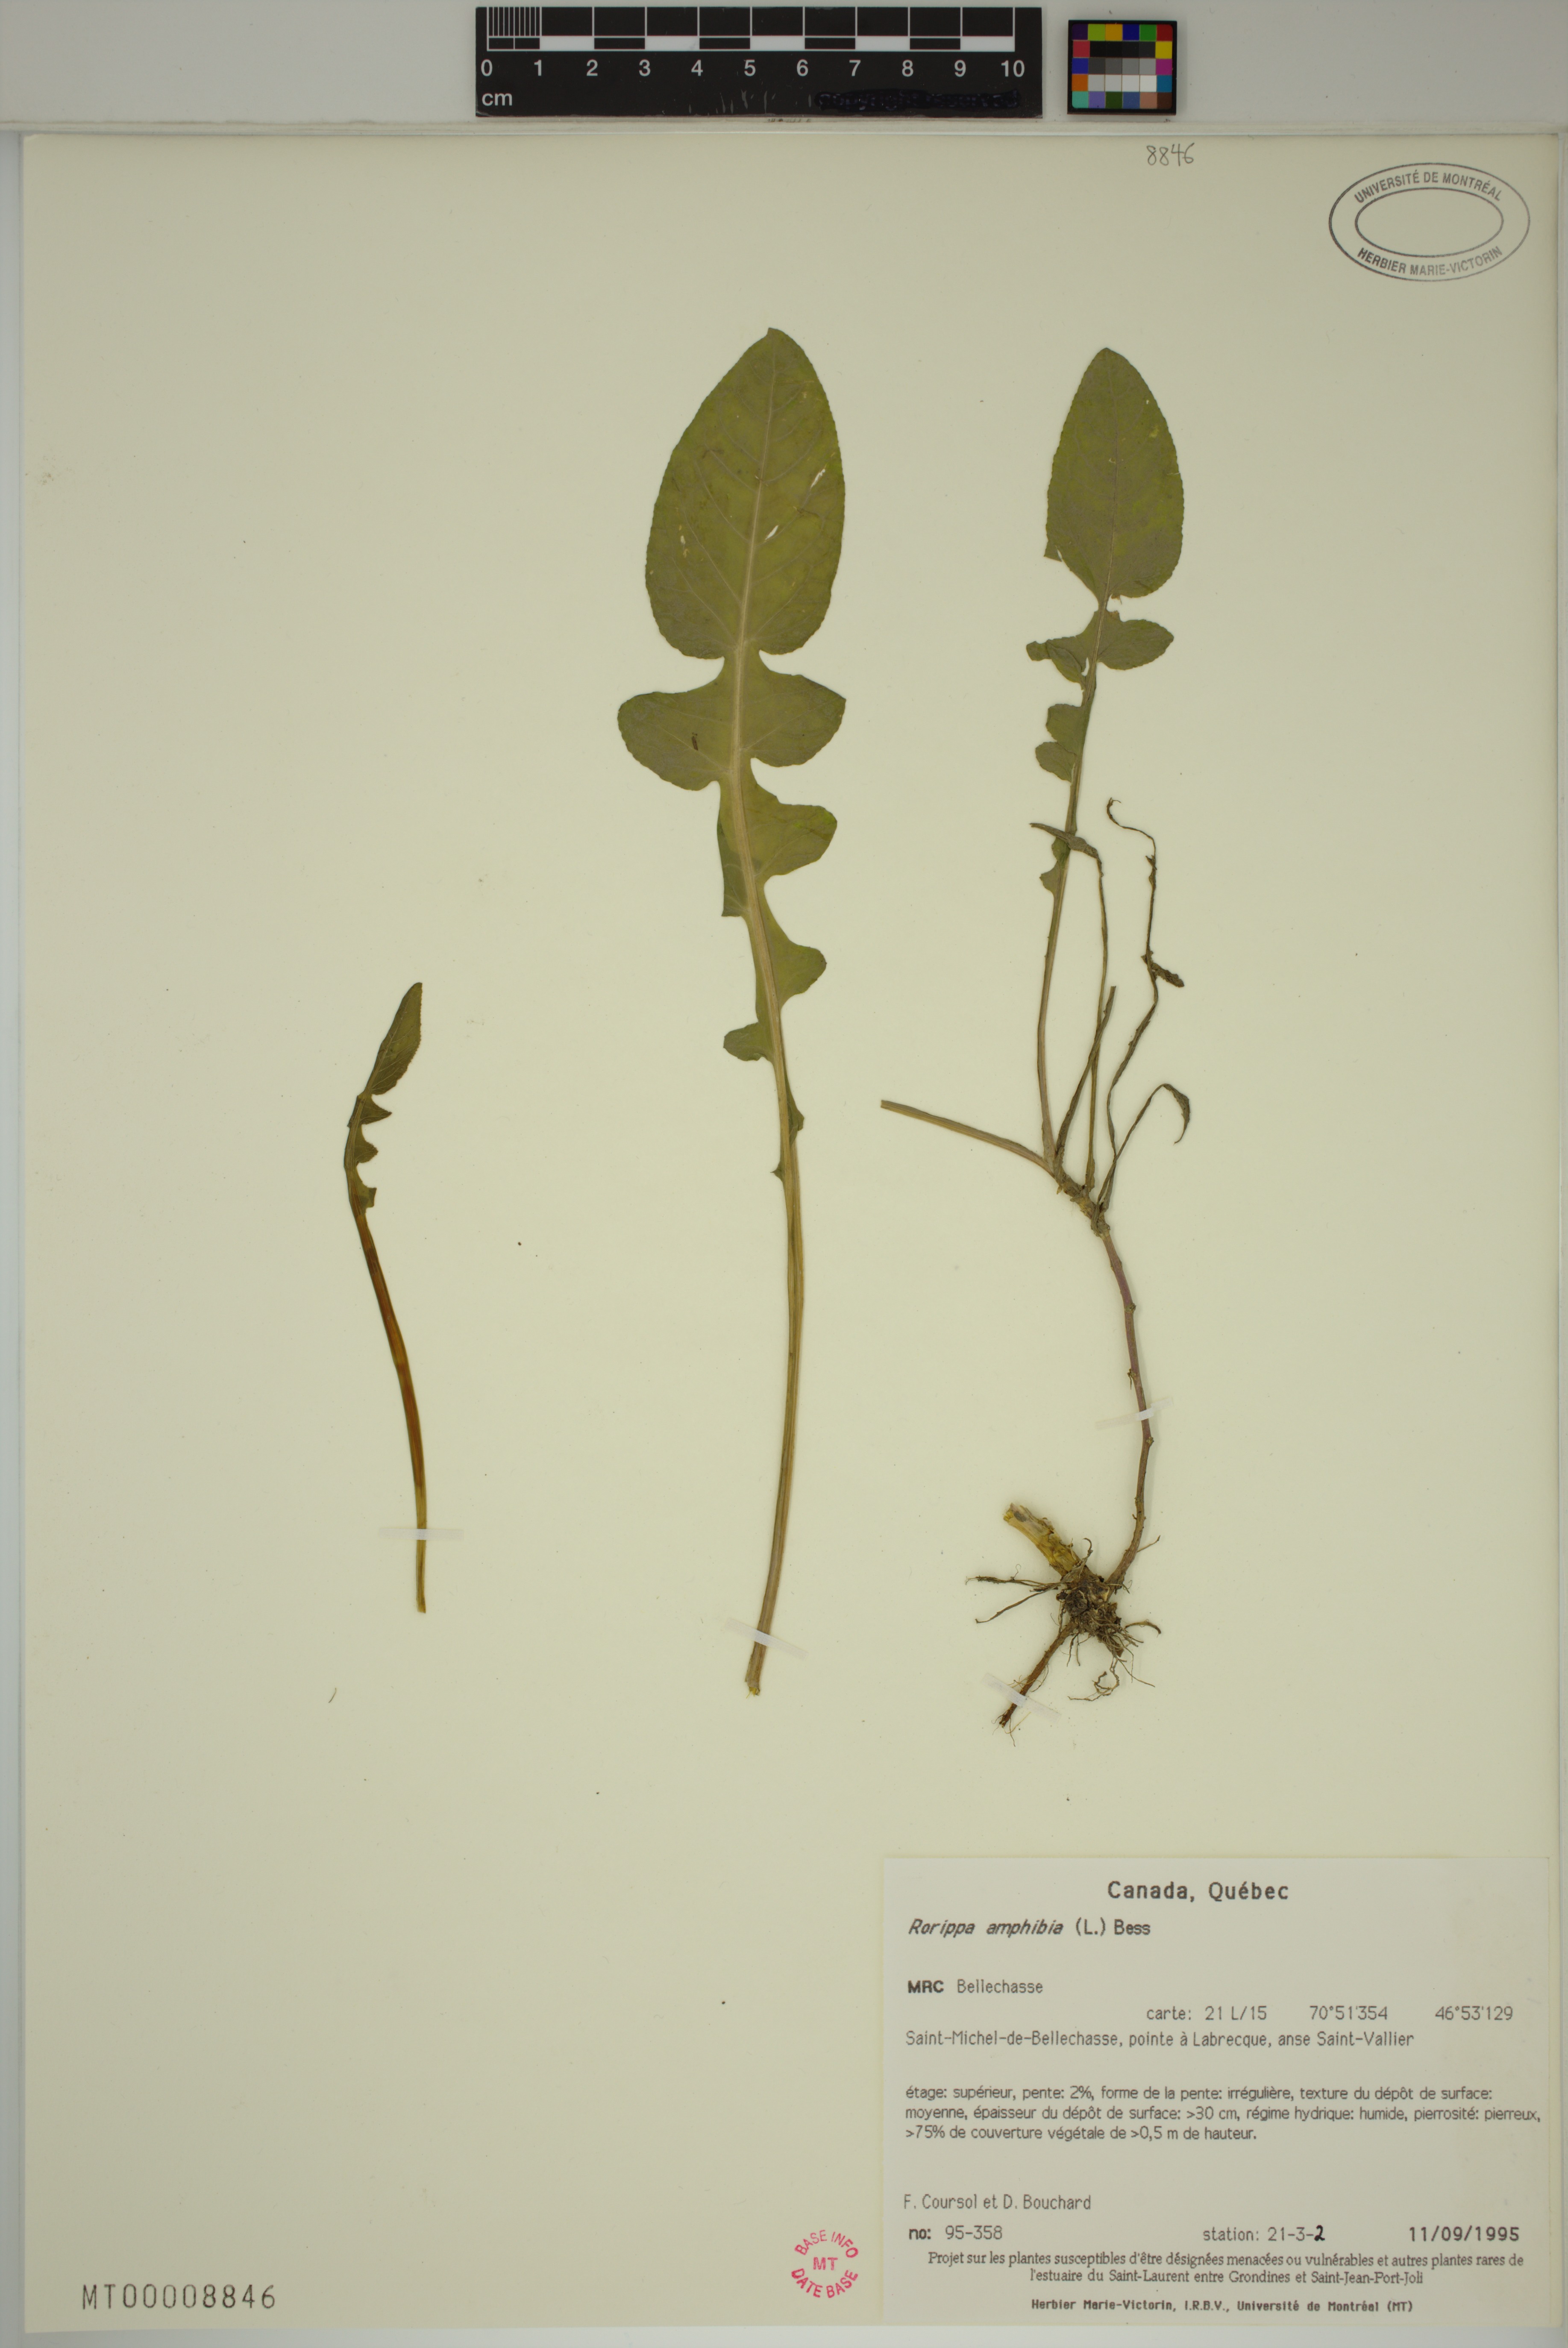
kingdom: Plantae
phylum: Tracheophyta
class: Magnoliopsida
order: Brassicales
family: Brassicaceae
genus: Rorippa
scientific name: Rorippa amphibia
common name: Great yellow-cress
